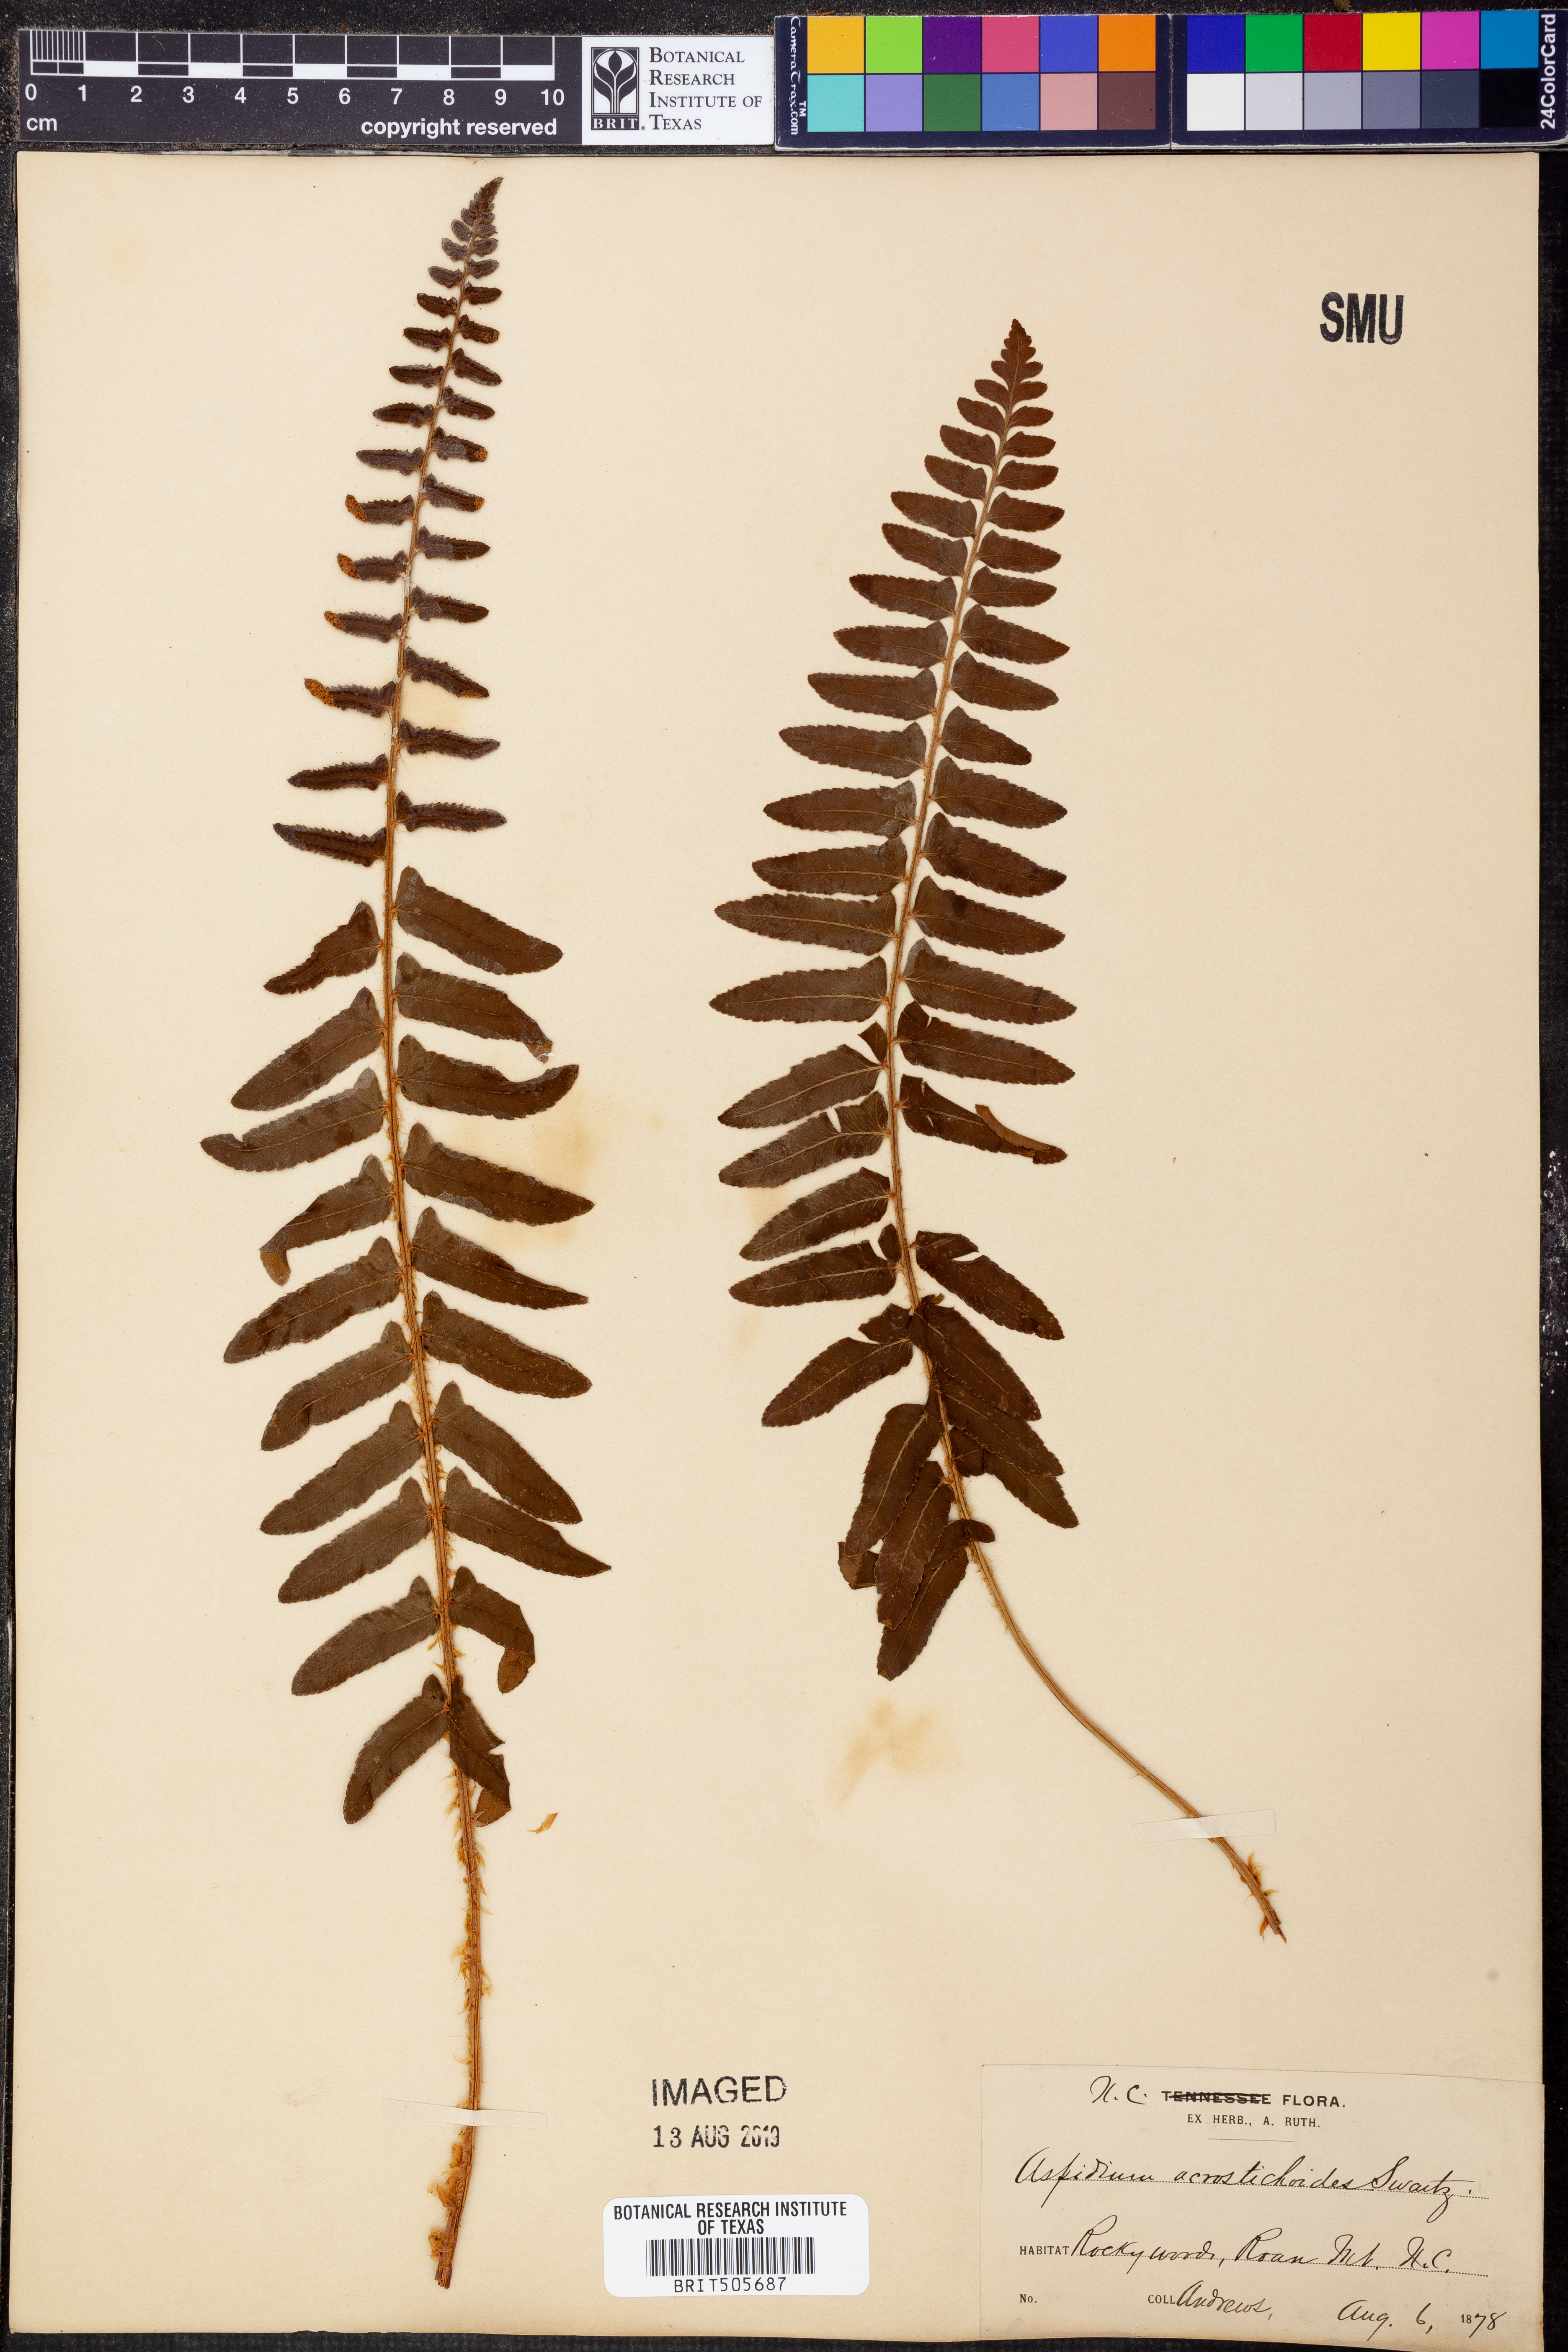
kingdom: Plantae
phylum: Tracheophyta
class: Polypodiopsida
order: Polypodiales
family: Dryopteridaceae
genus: Polystichum
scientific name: Polystichum acrostichoides
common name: Christmas fern
